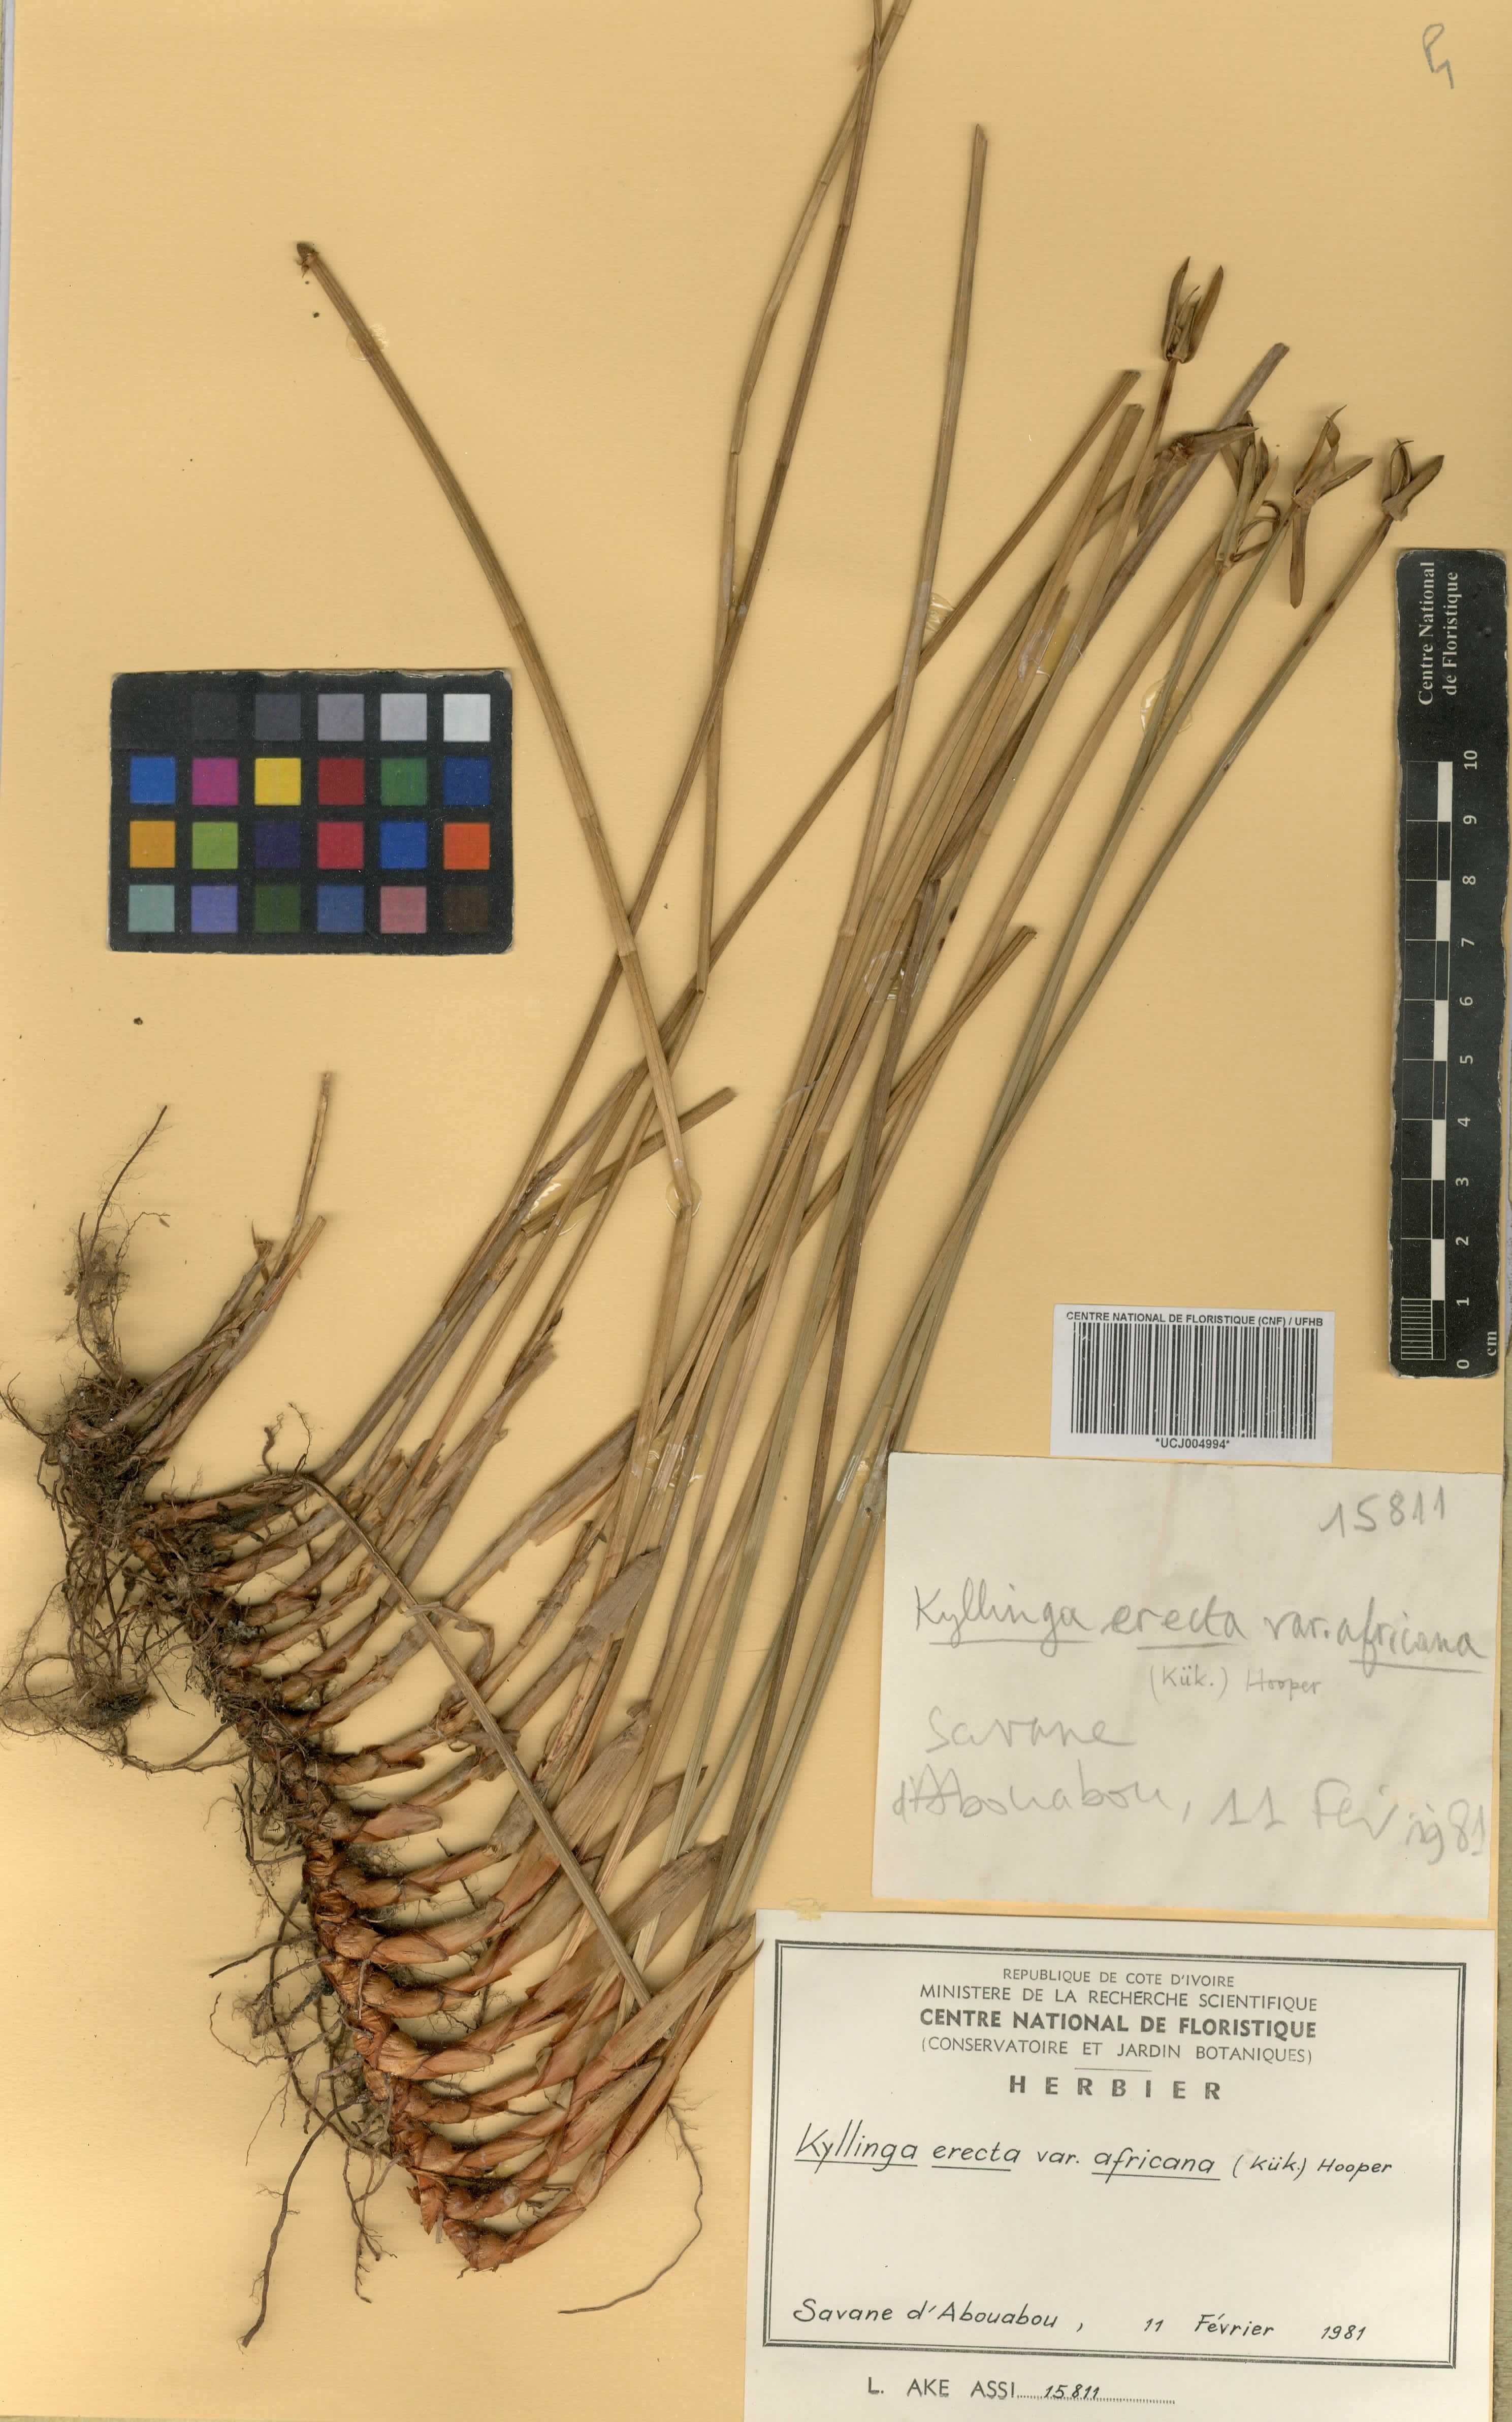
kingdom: Plantae
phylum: Tracheophyta
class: Liliopsida
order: Poales
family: Cyperaceae
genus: Cyperus
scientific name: Cyperus obtusatus
